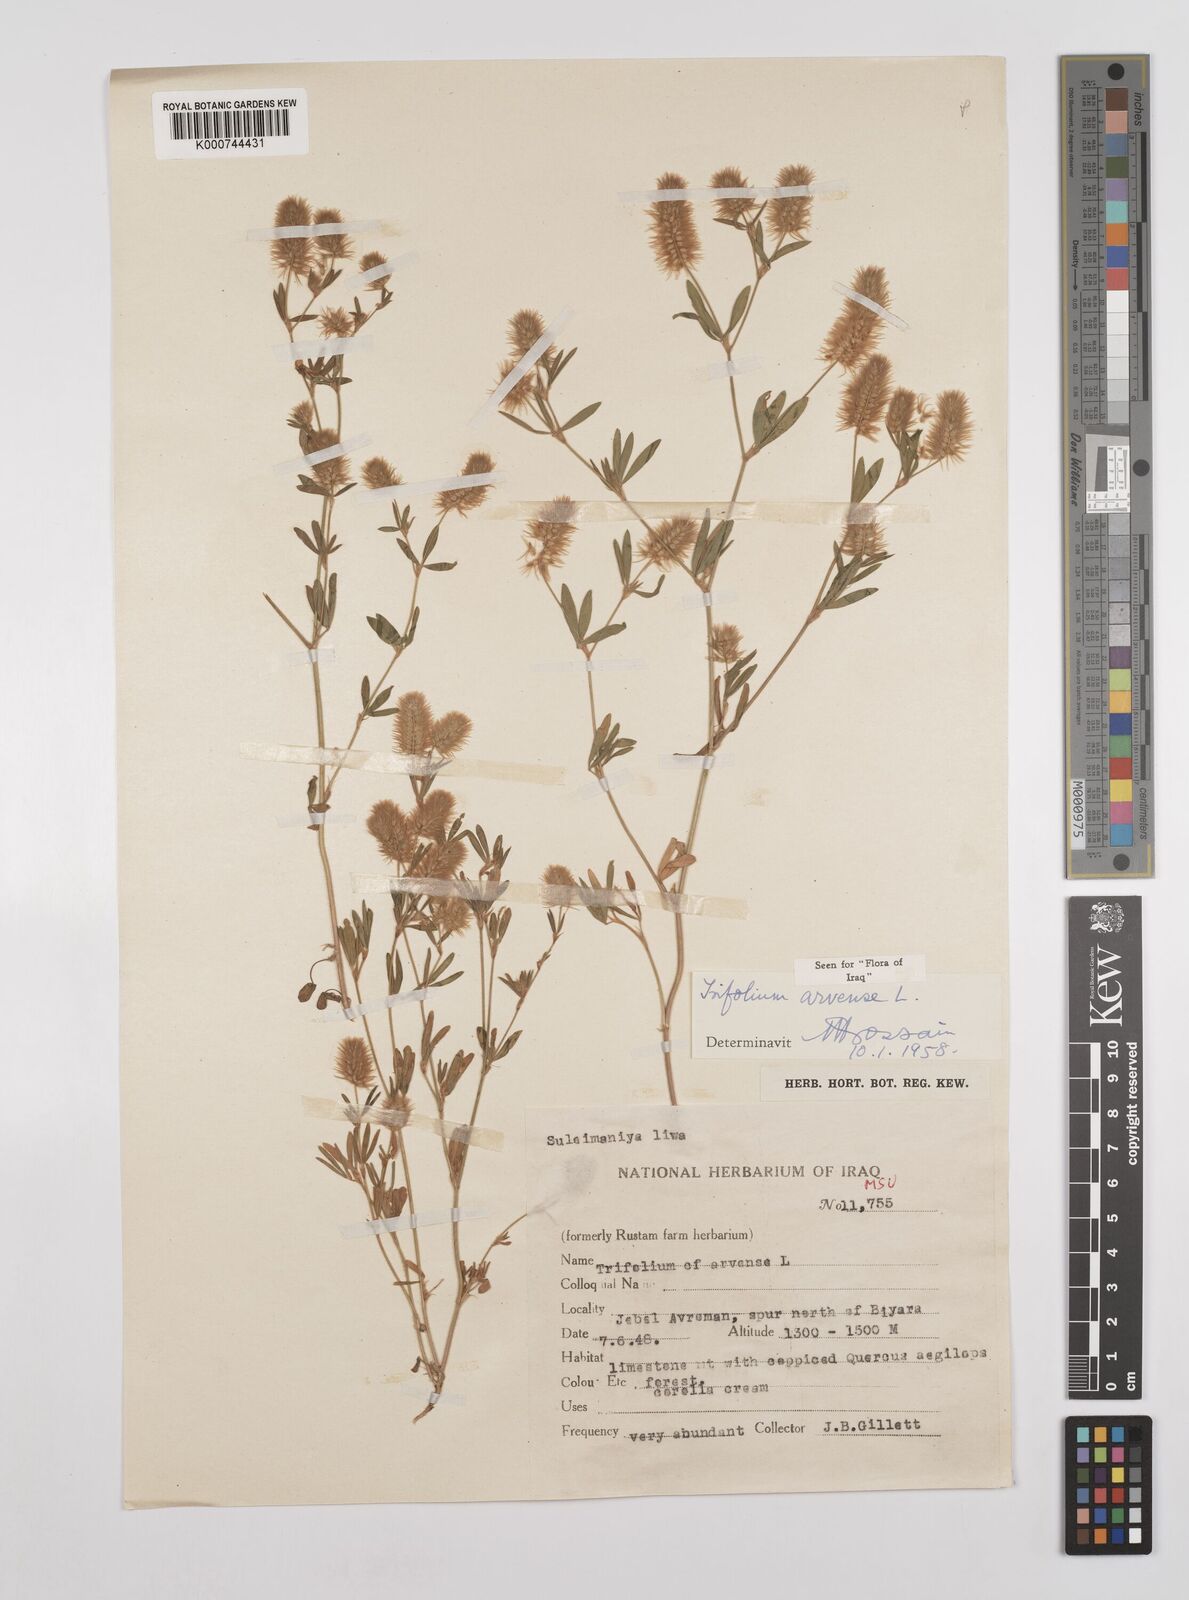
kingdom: Plantae
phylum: Tracheophyta
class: Magnoliopsida
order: Fabales
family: Fabaceae
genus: Trifolium
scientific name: Trifolium arvense
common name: Hare's-foot clover
